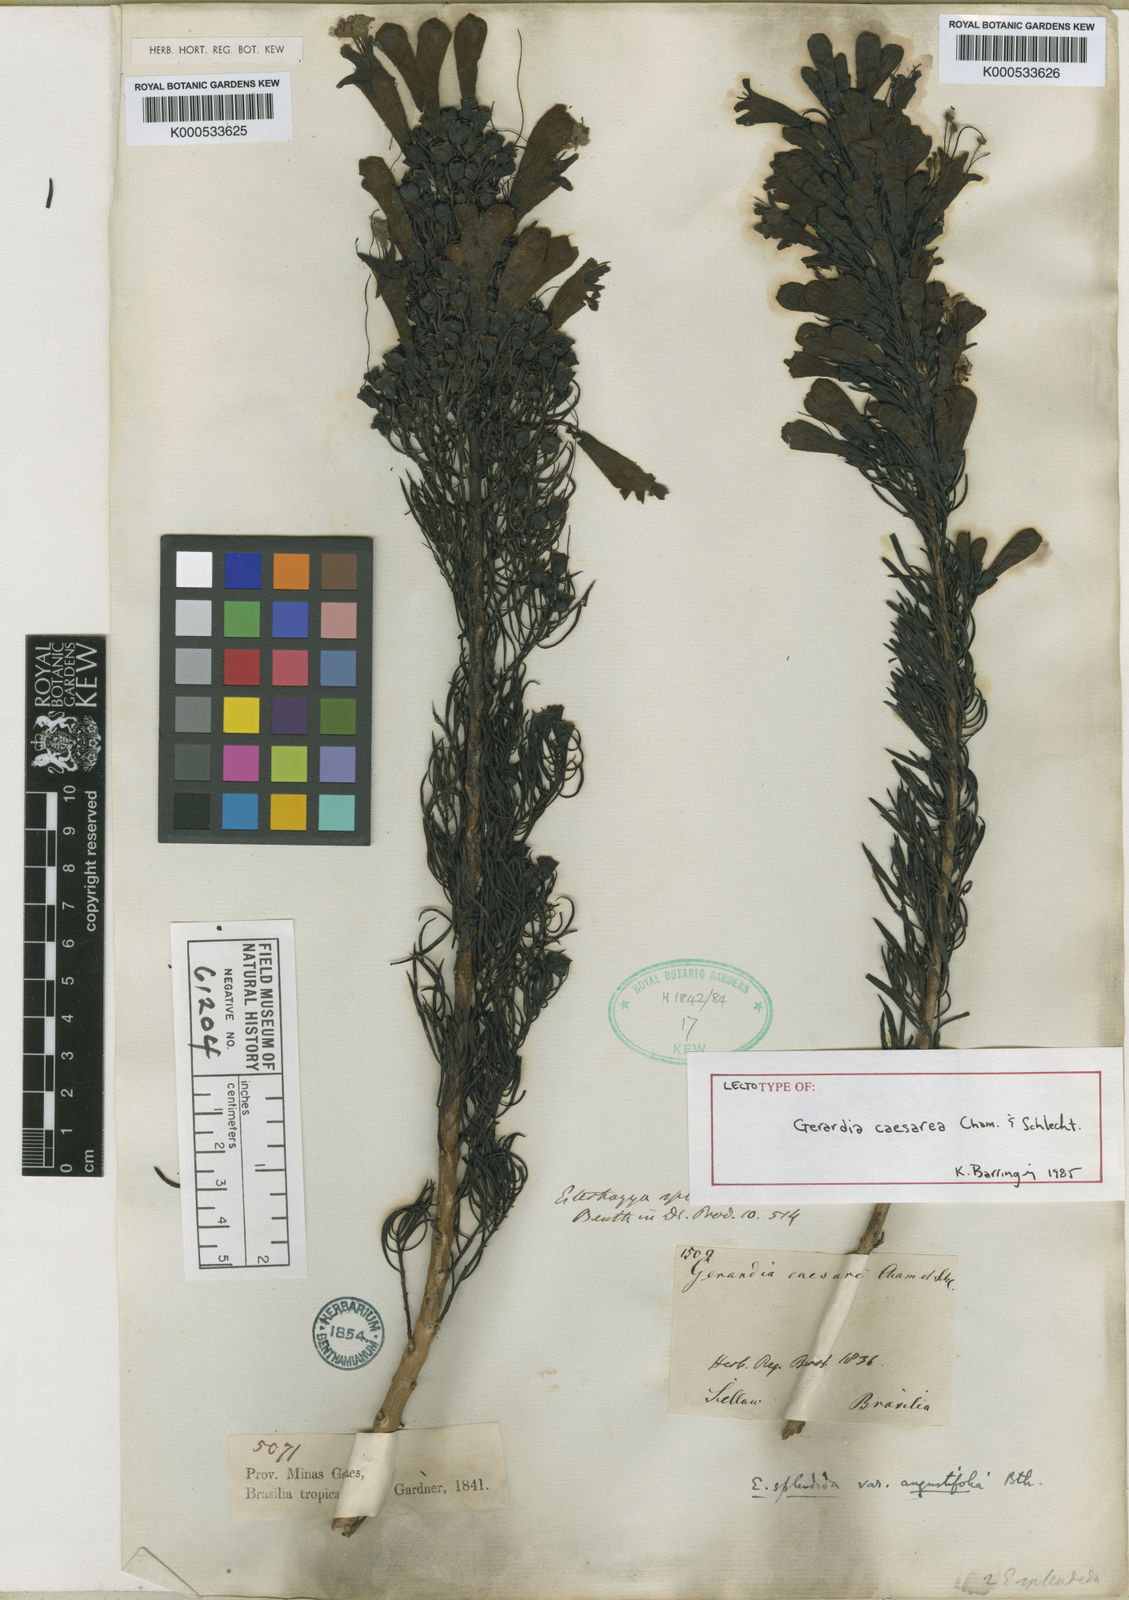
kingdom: Plantae
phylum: Tracheophyta
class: Magnoliopsida
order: Lamiales
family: Orobanchaceae
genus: Agalinis
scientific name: Agalinis
